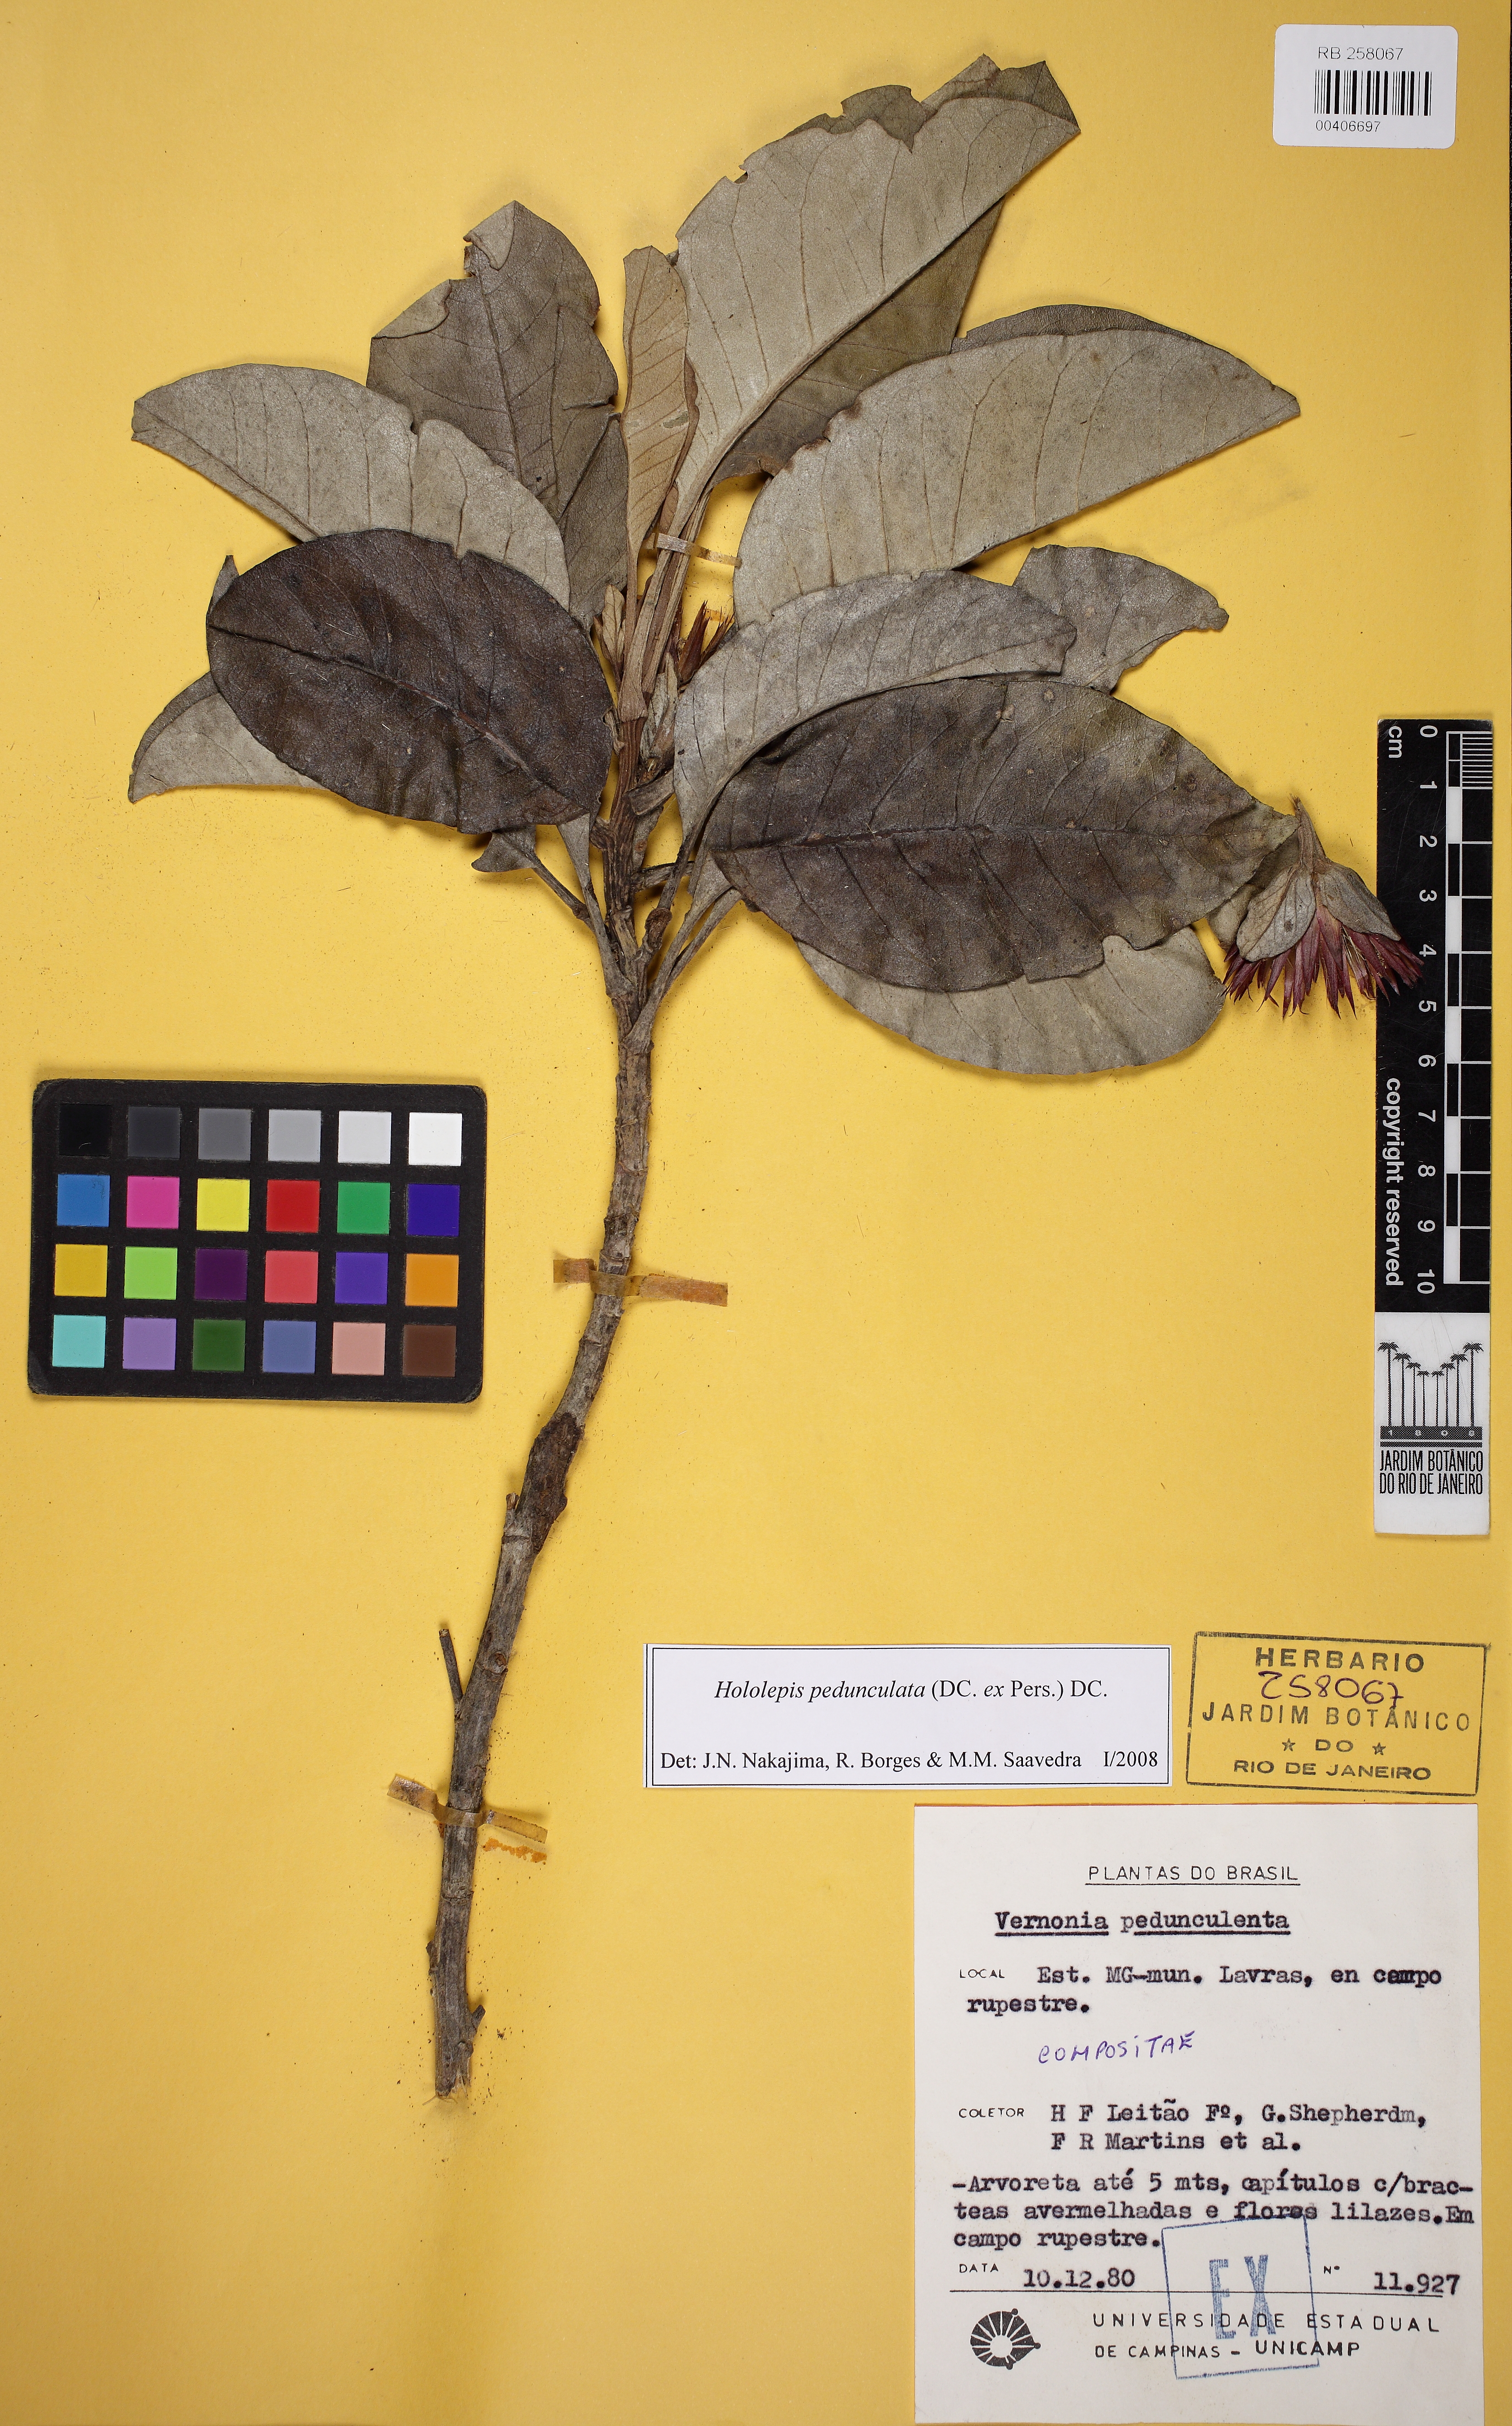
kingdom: Plantae
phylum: Tracheophyta
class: Magnoliopsida
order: Asterales
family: Asteraceae
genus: Hololepis
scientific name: Hololepis pedunculata
